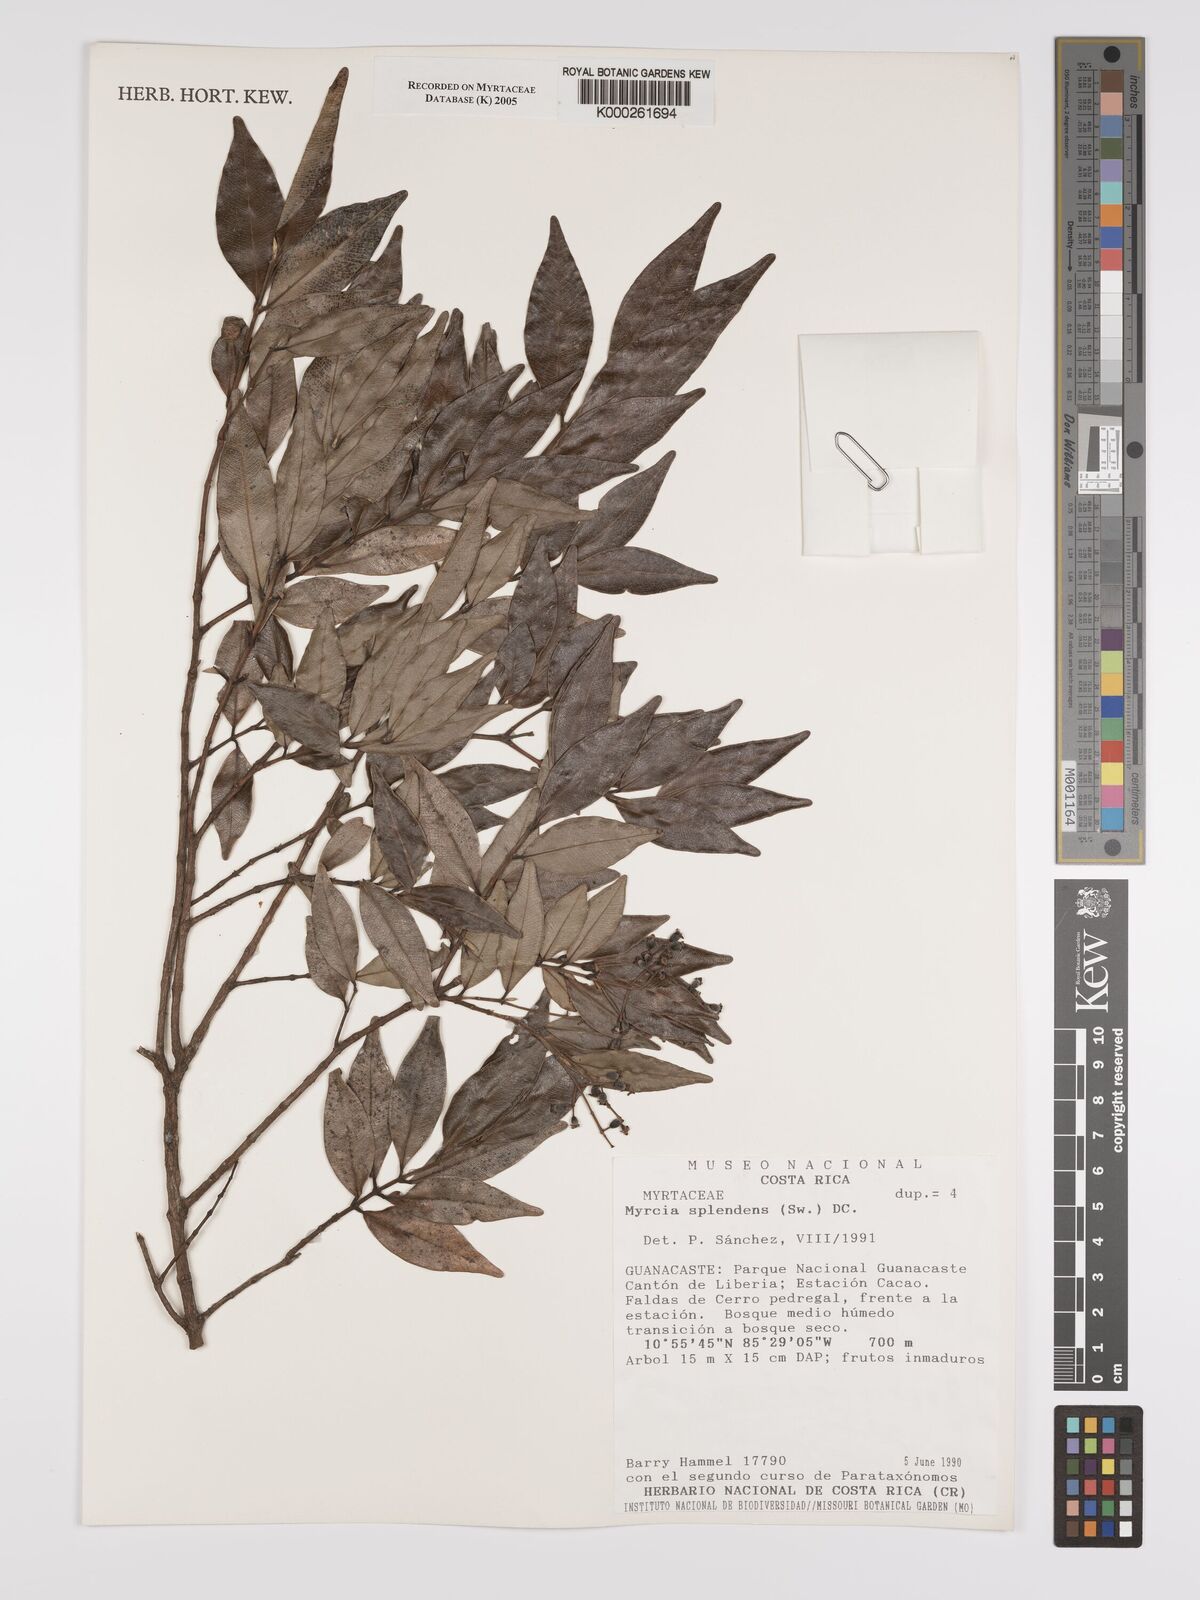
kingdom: Plantae
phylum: Tracheophyta
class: Magnoliopsida
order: Myrtales
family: Myrtaceae
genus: Myrcia
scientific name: Myrcia splendens
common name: Surinam cherry
